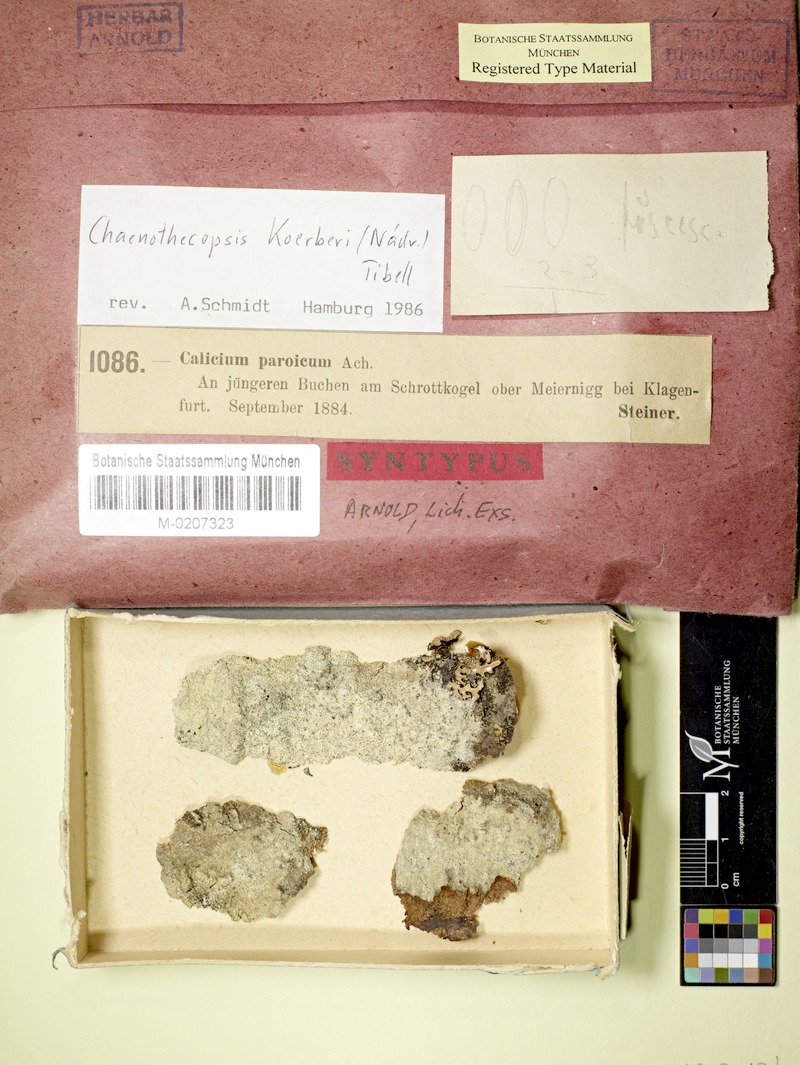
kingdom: Fungi
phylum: Ascomycota
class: Eurotiomycetes
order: Mycocaliciales
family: Mycocaliciaceae
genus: Chaenothecopsis
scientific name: Chaenothecopsis ochroleuca
